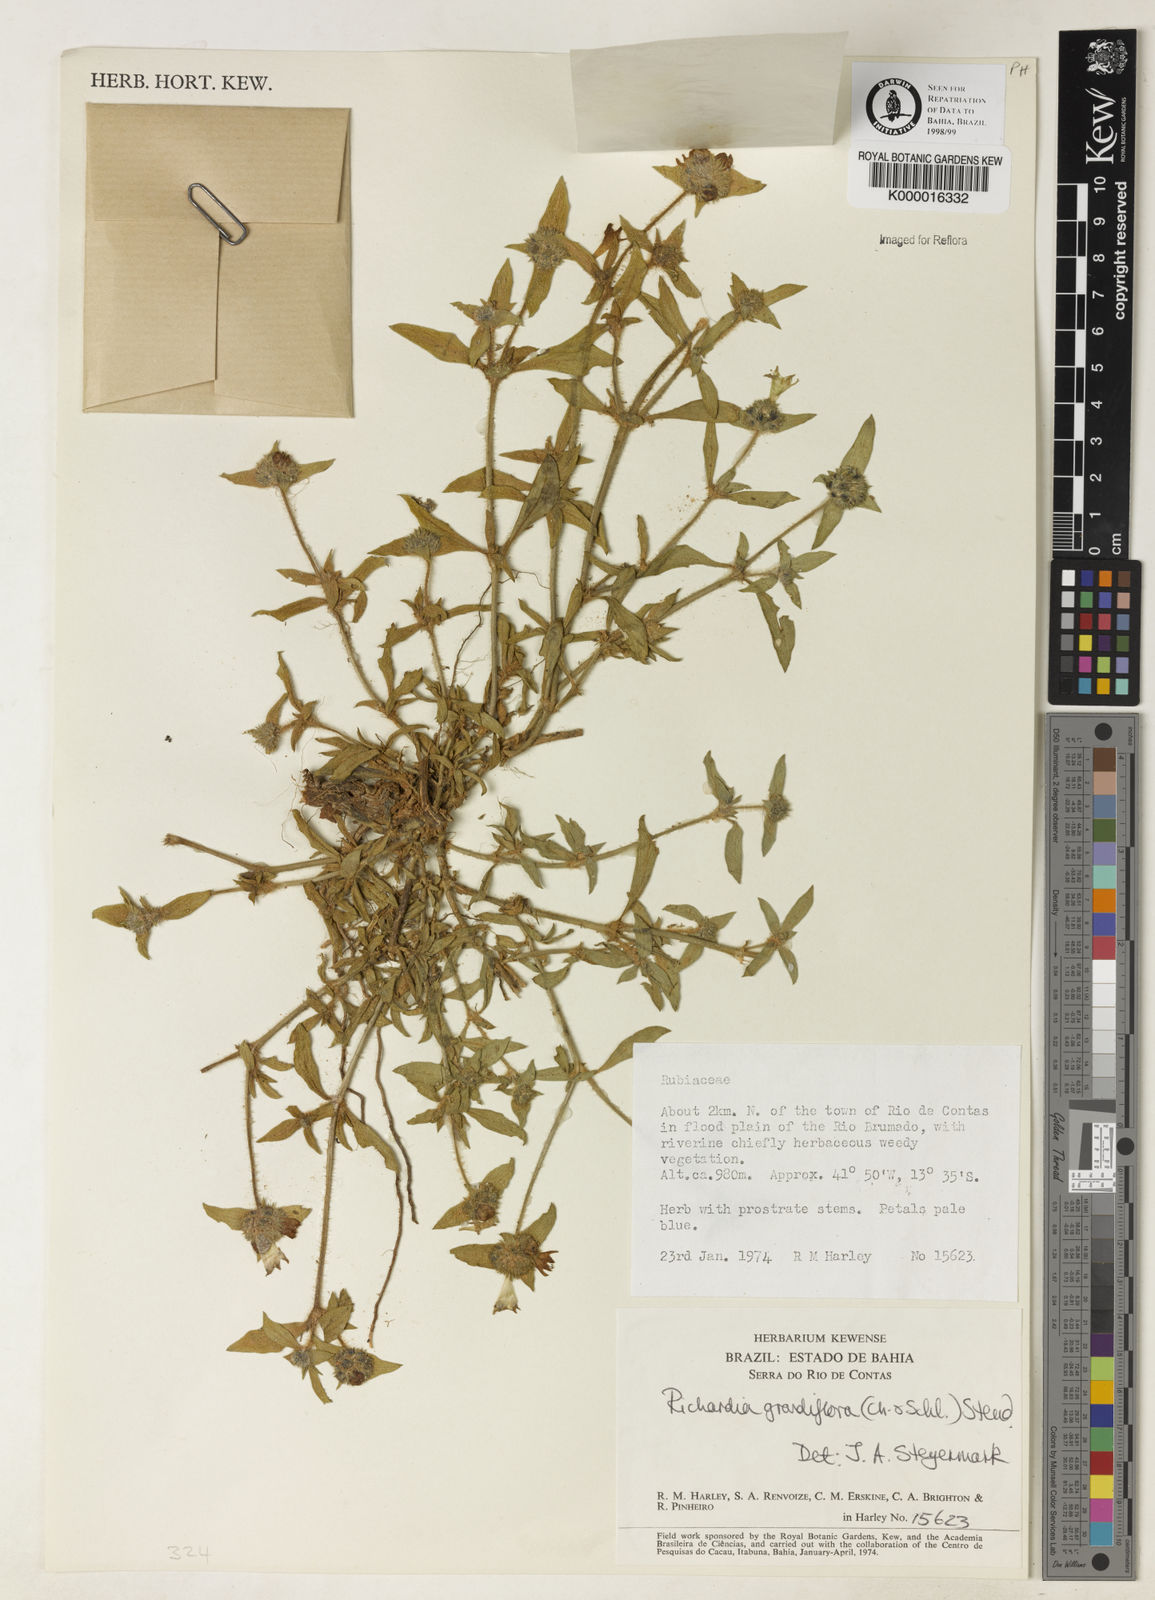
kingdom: Plantae
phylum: Tracheophyta
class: Magnoliopsida
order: Gentianales
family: Rubiaceae
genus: Richardia
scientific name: Richardia grandiflora
